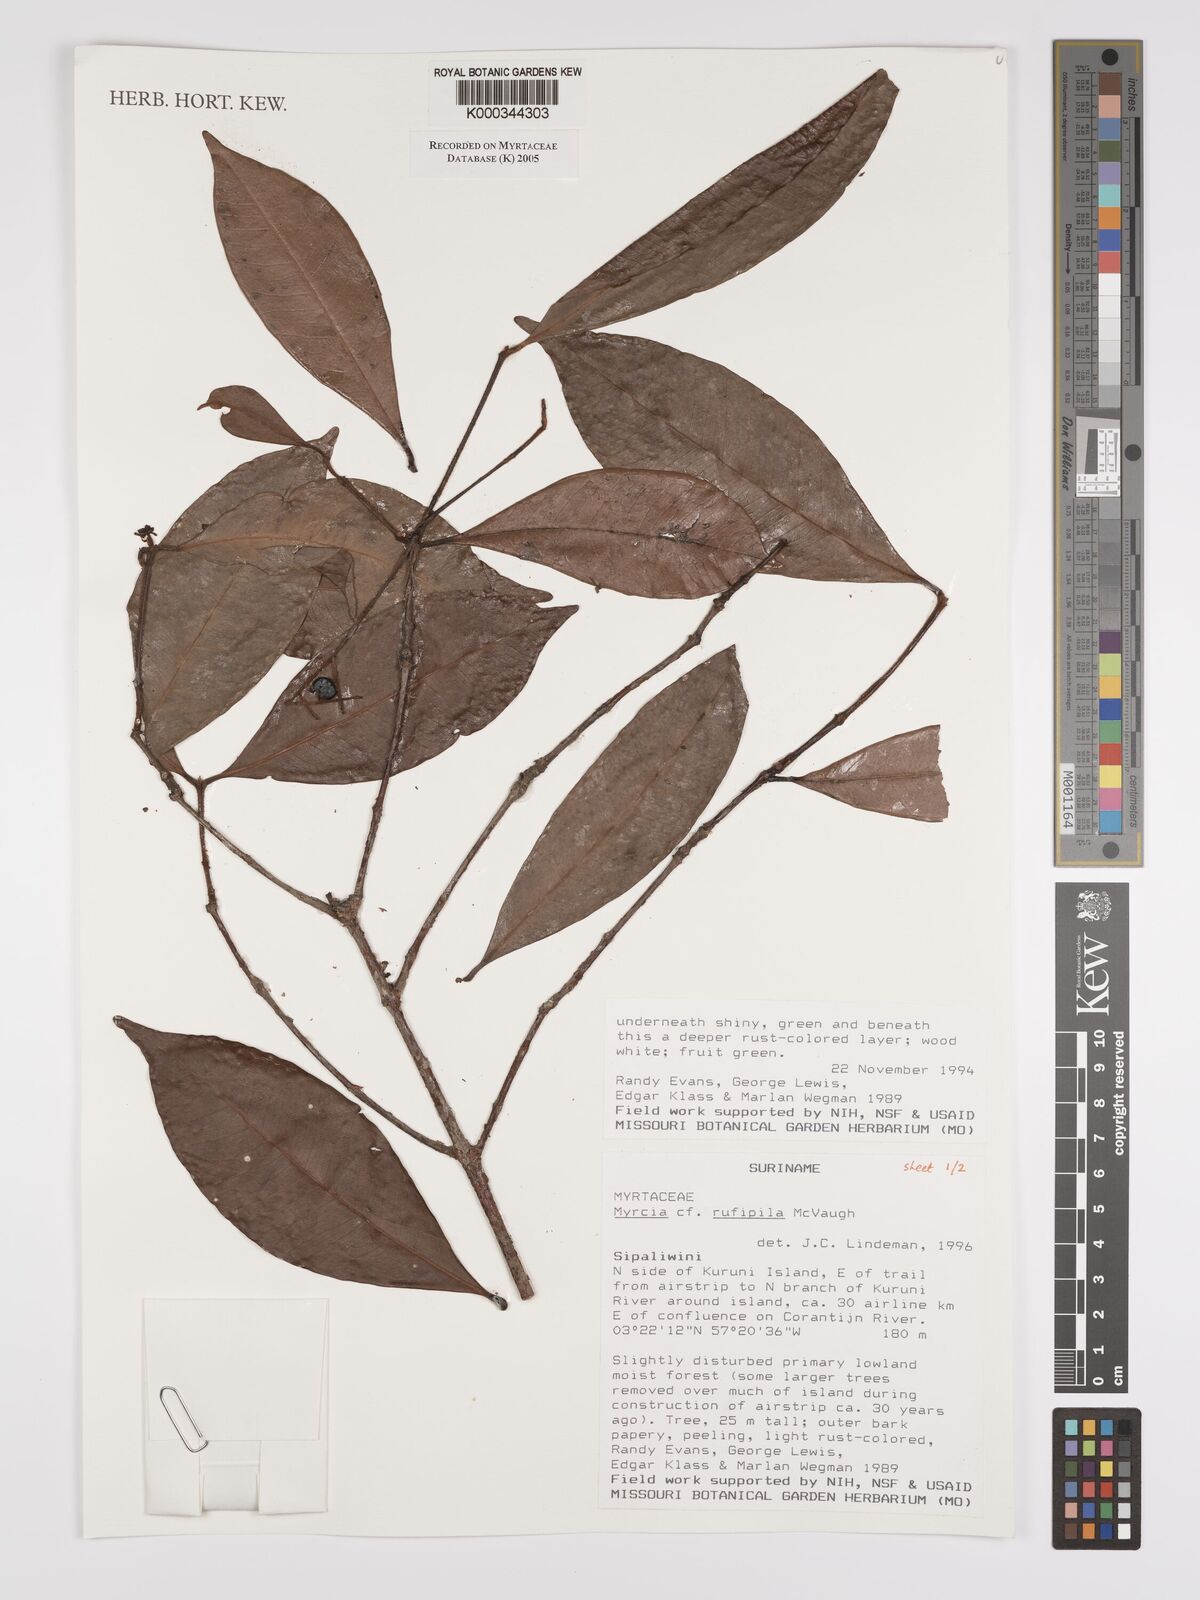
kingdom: Plantae
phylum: Tracheophyta
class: Magnoliopsida
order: Myrtales
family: Myrtaceae
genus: Myrcia
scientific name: Myrcia rufipila
